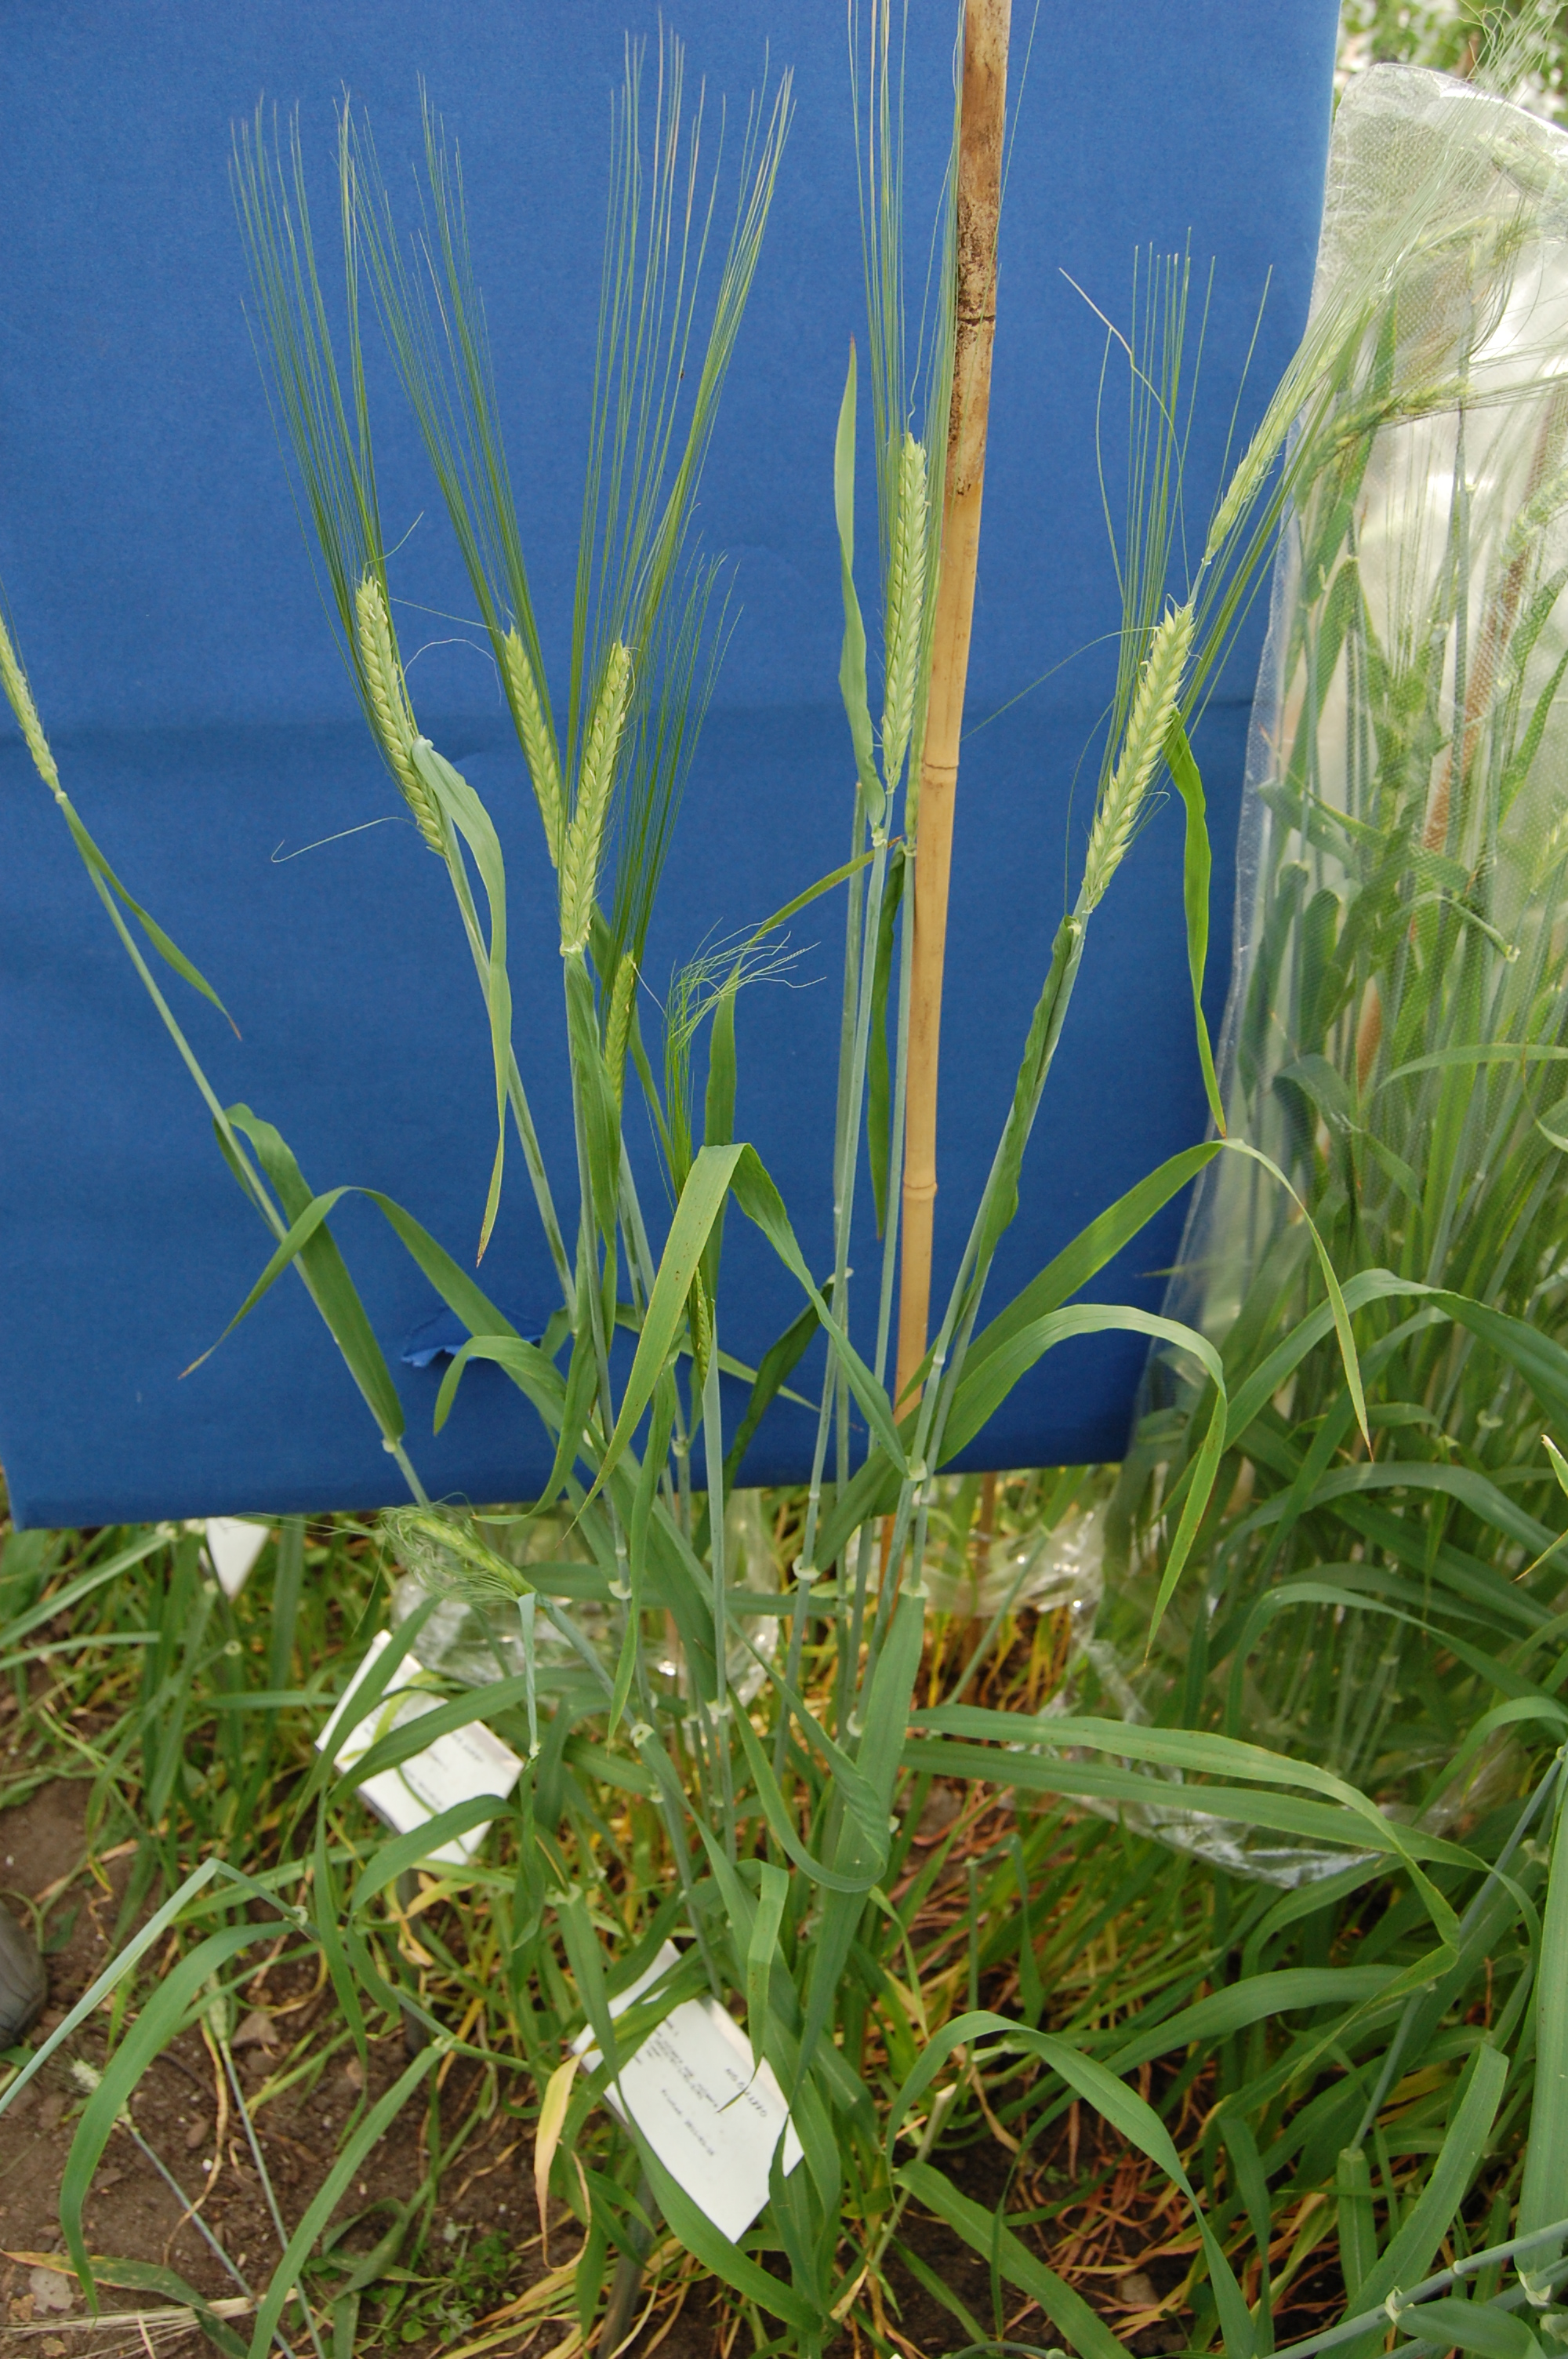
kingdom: Plantae
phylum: Tracheophyta
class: Liliopsida
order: Poales
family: Poaceae
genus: Hordeum
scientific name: Hordeum vulgare
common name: Common barley
